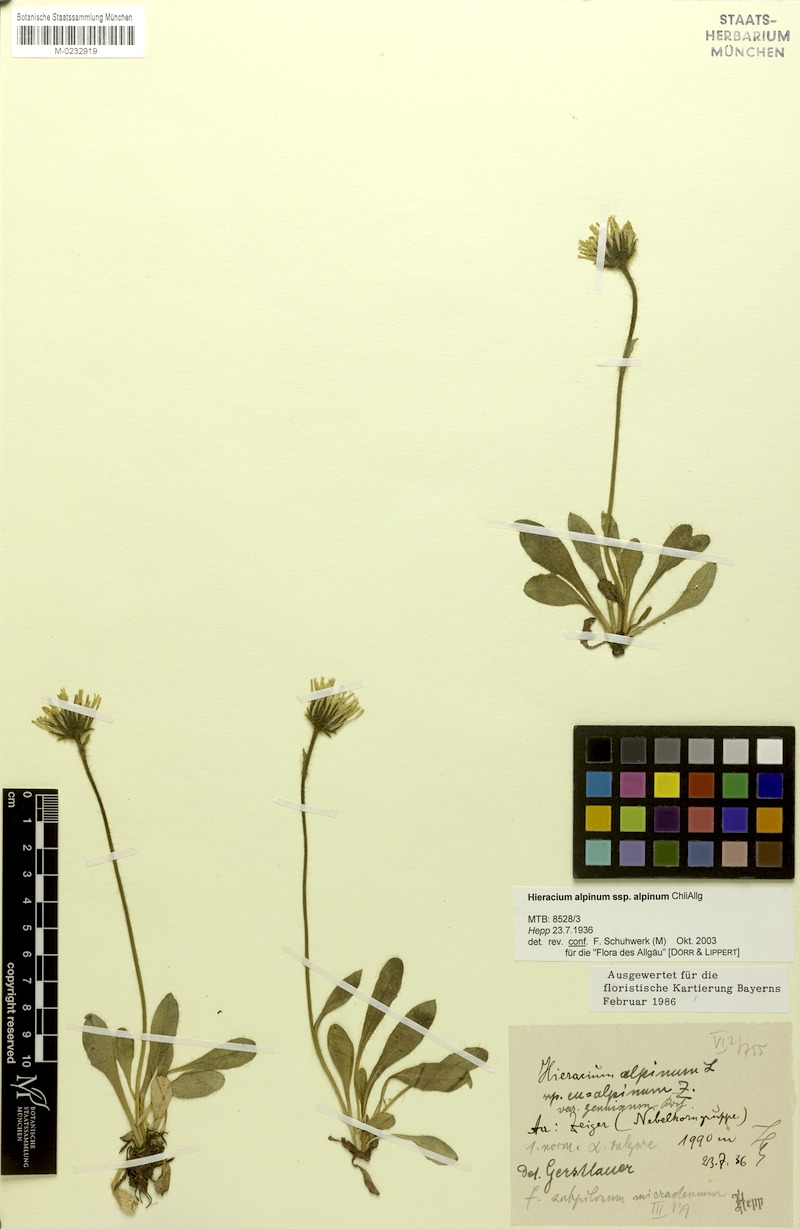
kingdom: Plantae
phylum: Tracheophyta
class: Magnoliopsida
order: Asterales
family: Asteraceae
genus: Hieracium
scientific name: Hieracium amplexicaule
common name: Sticky hawkweed
